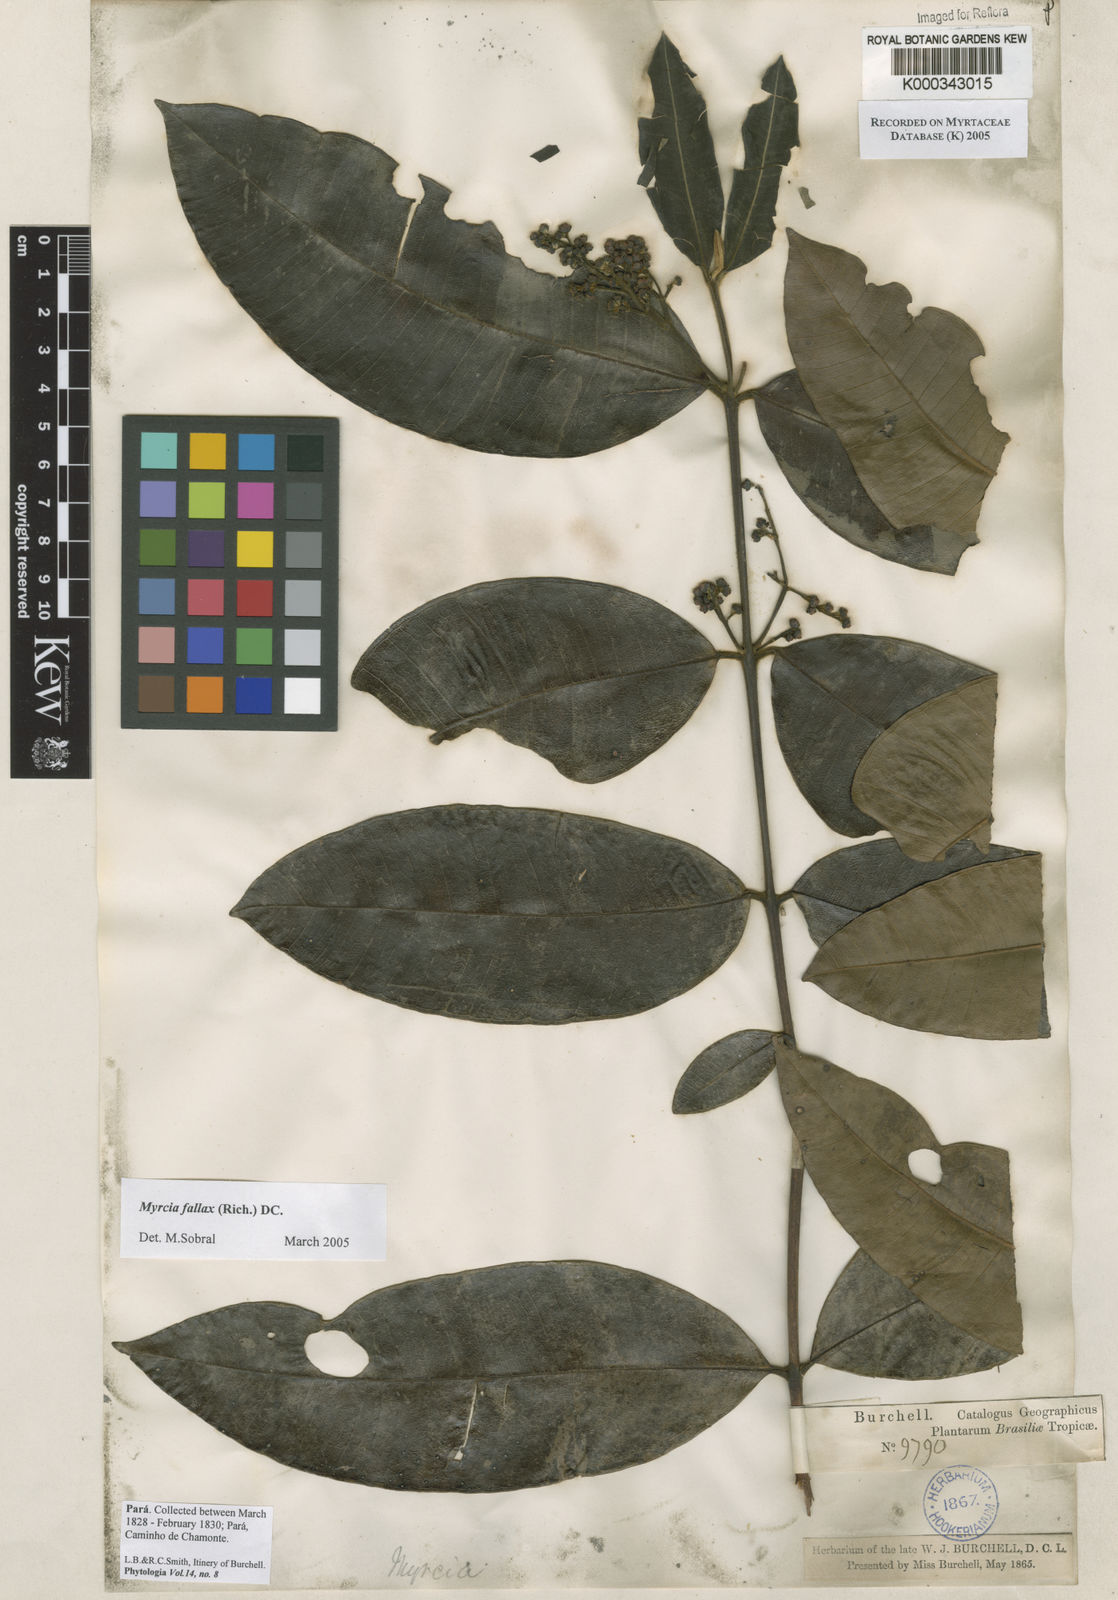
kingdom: Plantae
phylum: Tracheophyta
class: Magnoliopsida
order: Myrtales
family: Myrtaceae
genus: Myrcia
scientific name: Myrcia splendens
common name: Surinam cherry
